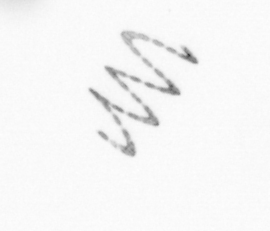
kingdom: Chromista
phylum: Ochrophyta
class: Bacillariophyceae
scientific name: Bacillariophyceae
